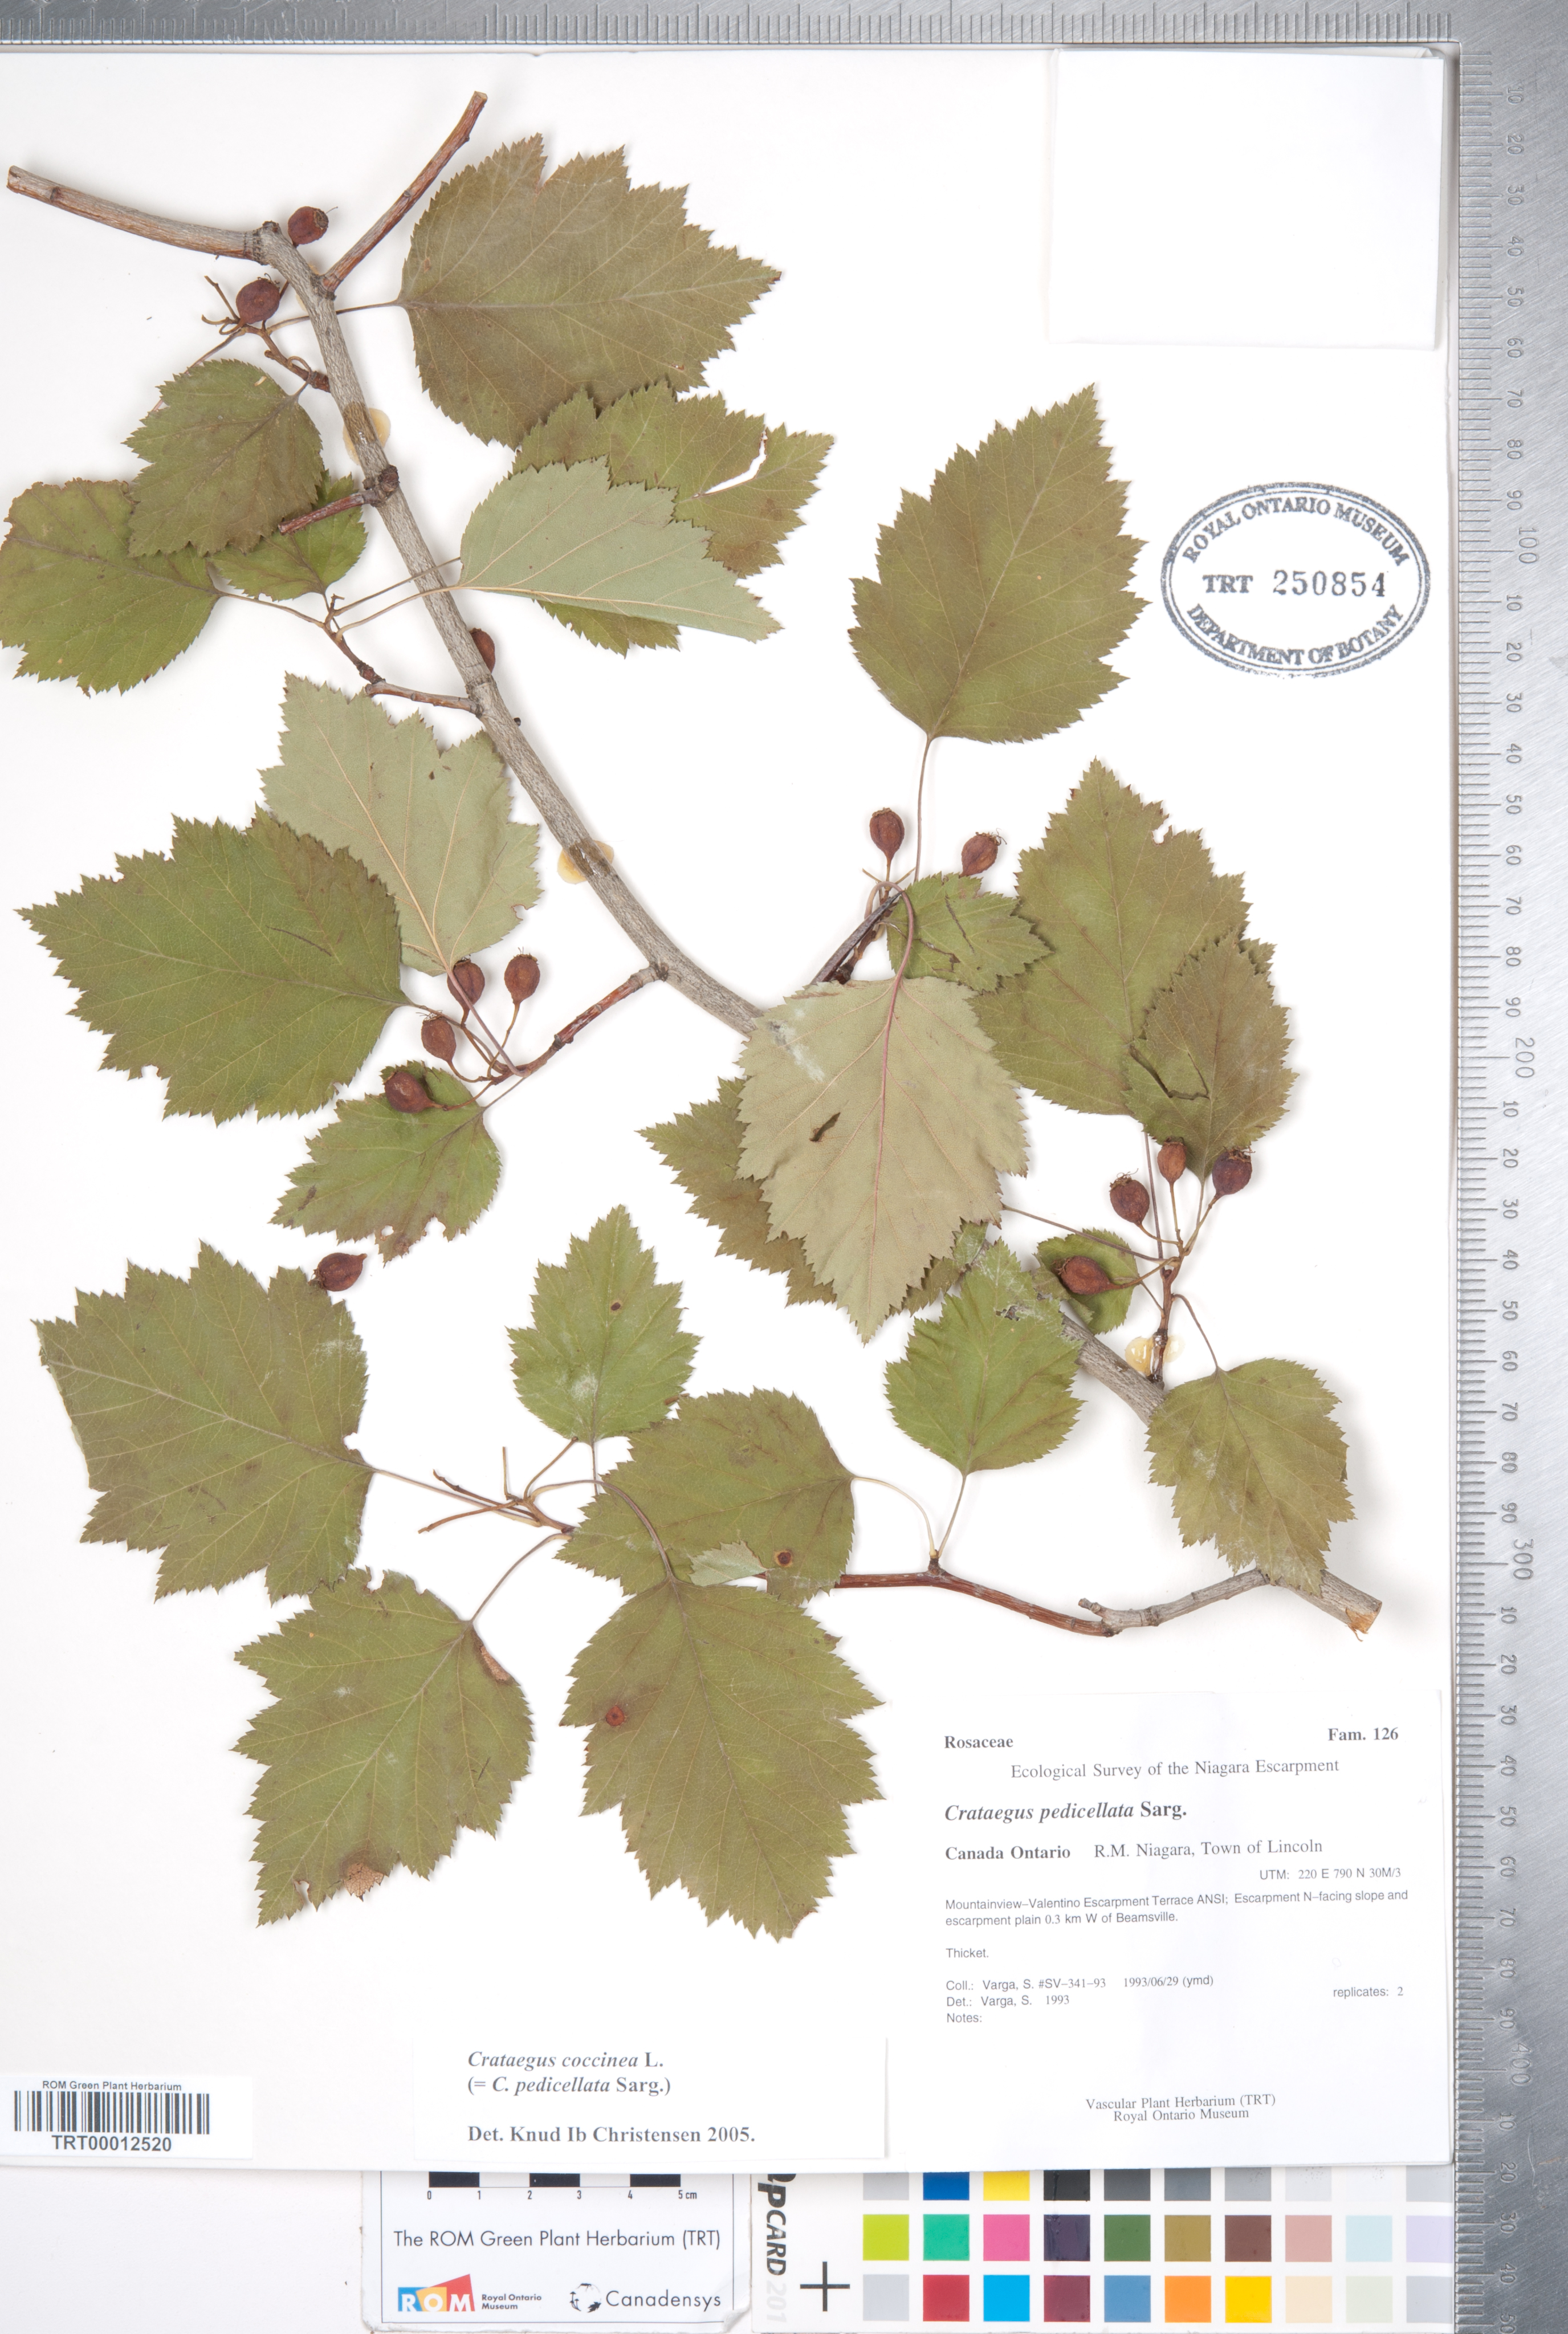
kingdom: Plantae
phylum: Tracheophyta
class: Magnoliopsida
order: Rosales
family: Rosaceae
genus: Crataegus
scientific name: Crataegus coccinea
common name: Scarlet hawthorn
